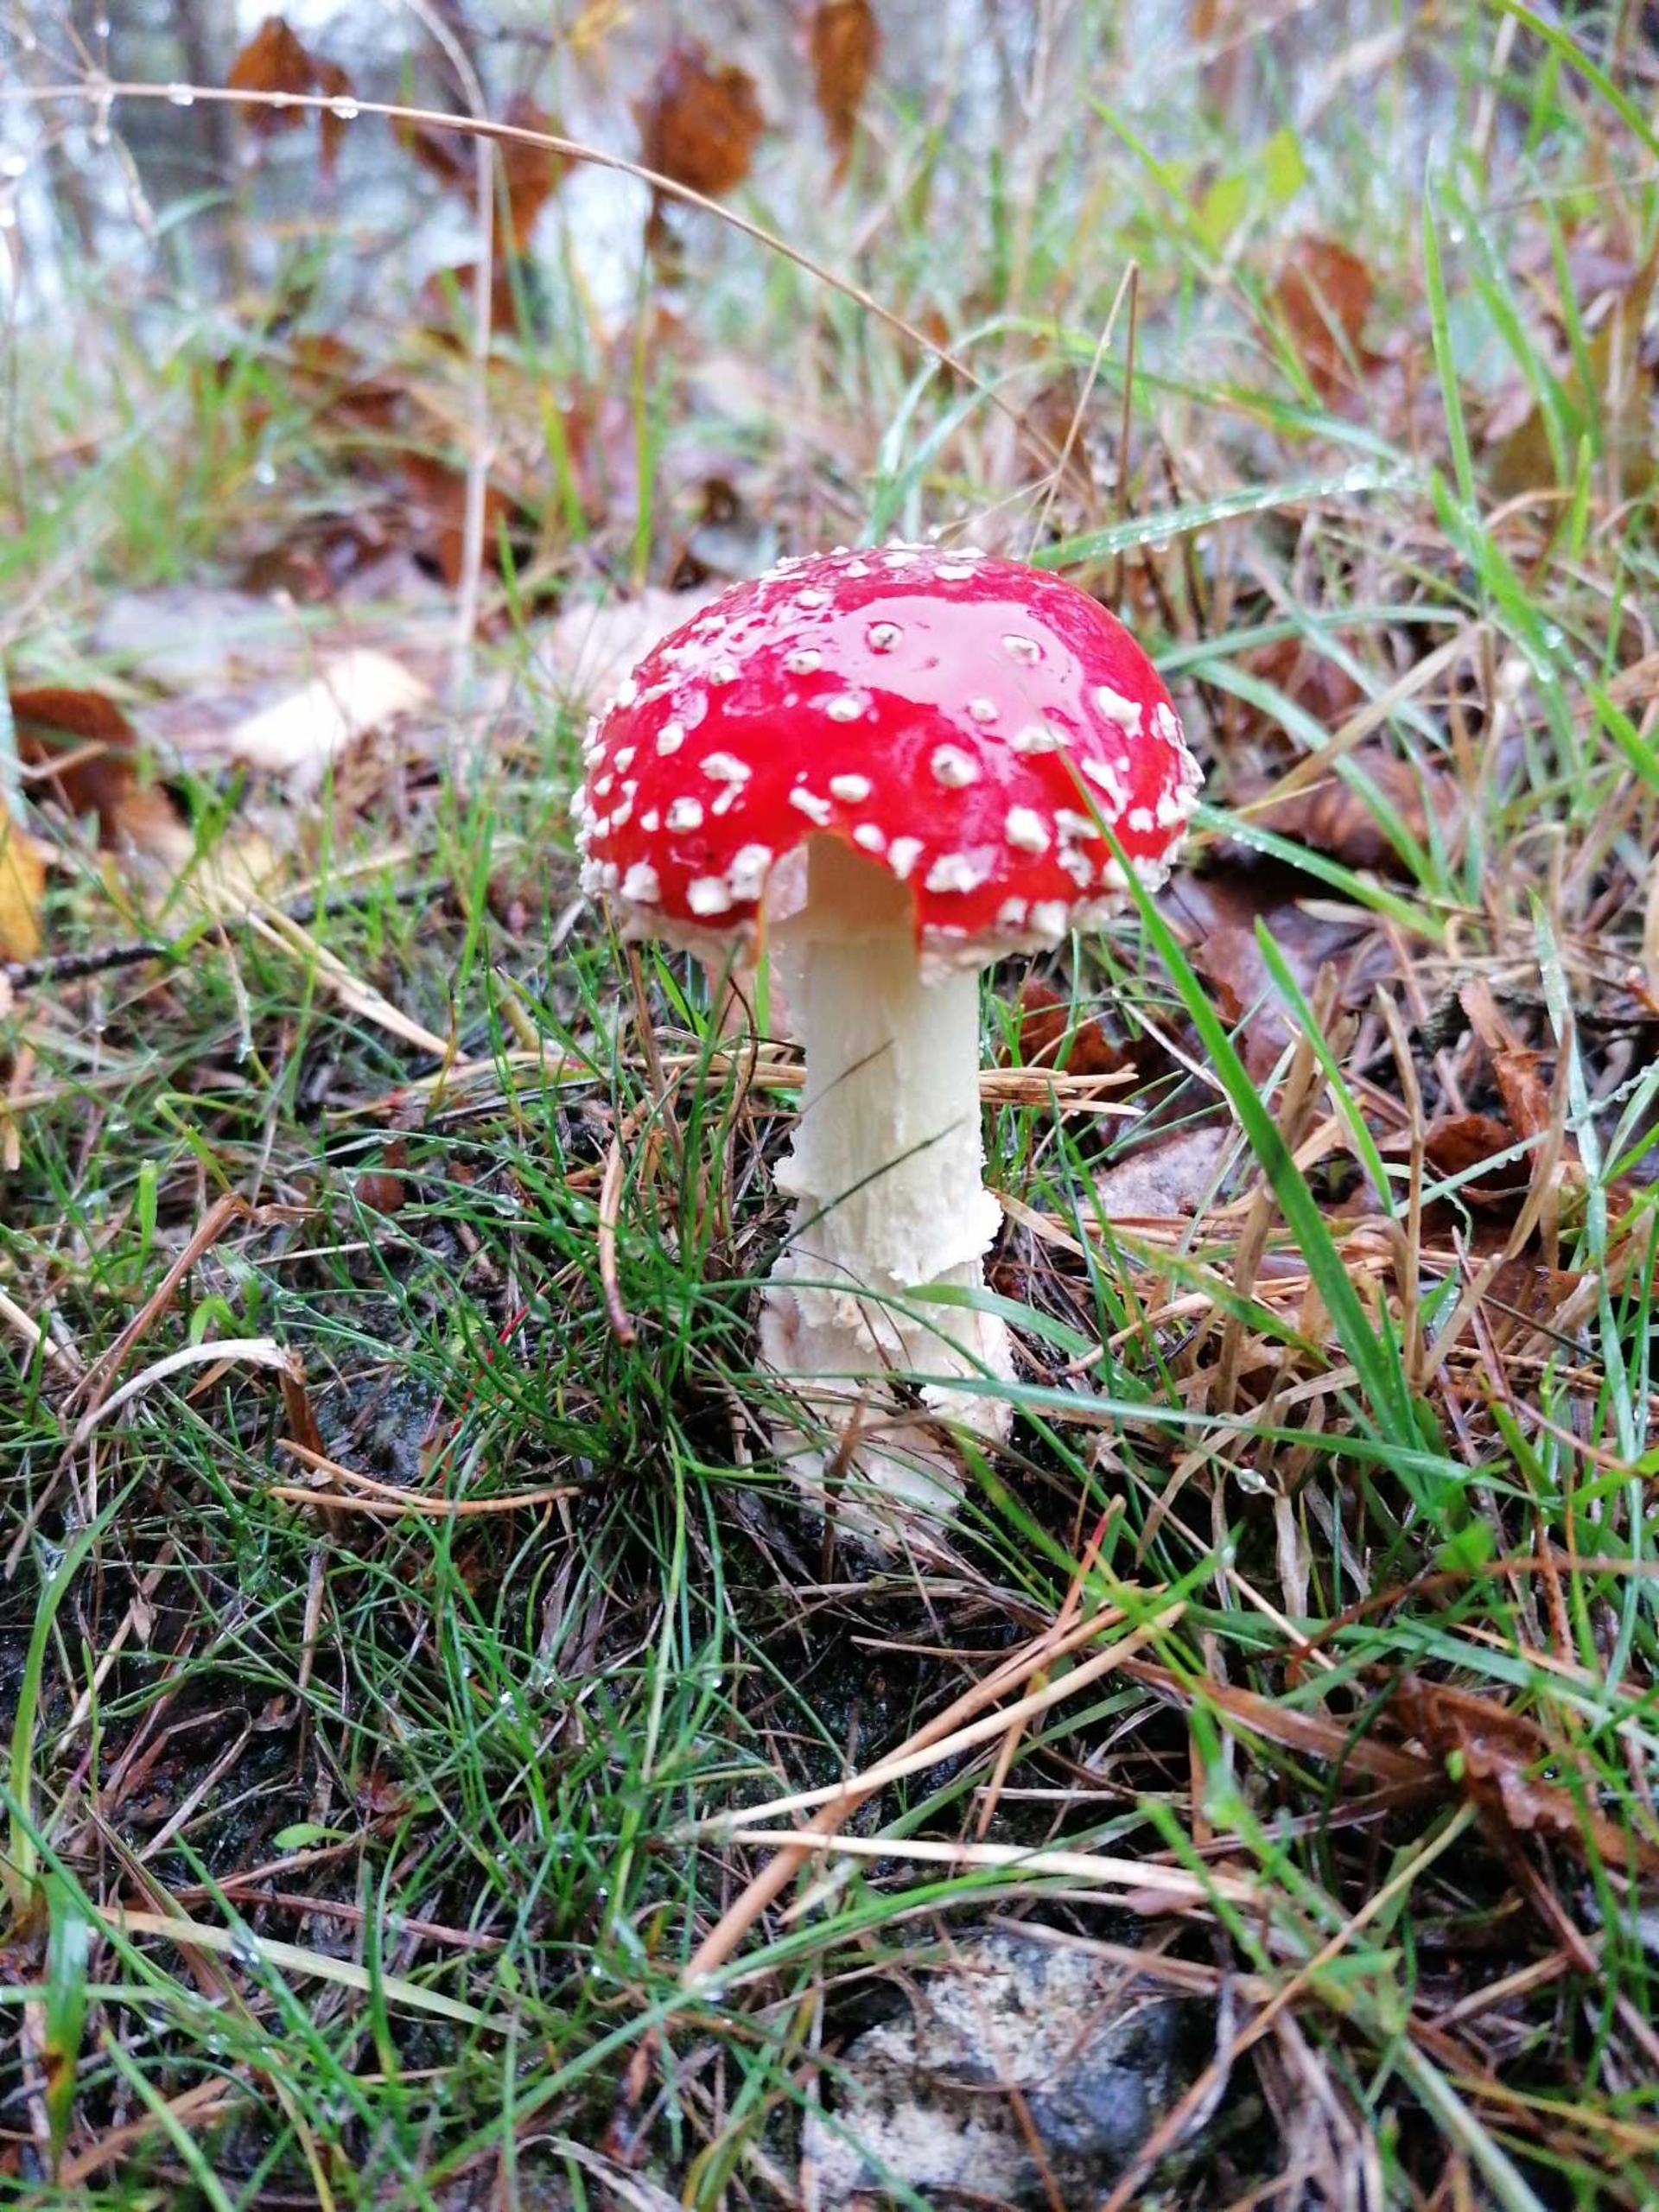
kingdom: Fungi
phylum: Basidiomycota
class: Agaricomycetes
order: Agaricales
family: Amanitaceae
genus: Amanita
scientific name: Amanita muscaria
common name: Rød fluesvamp
